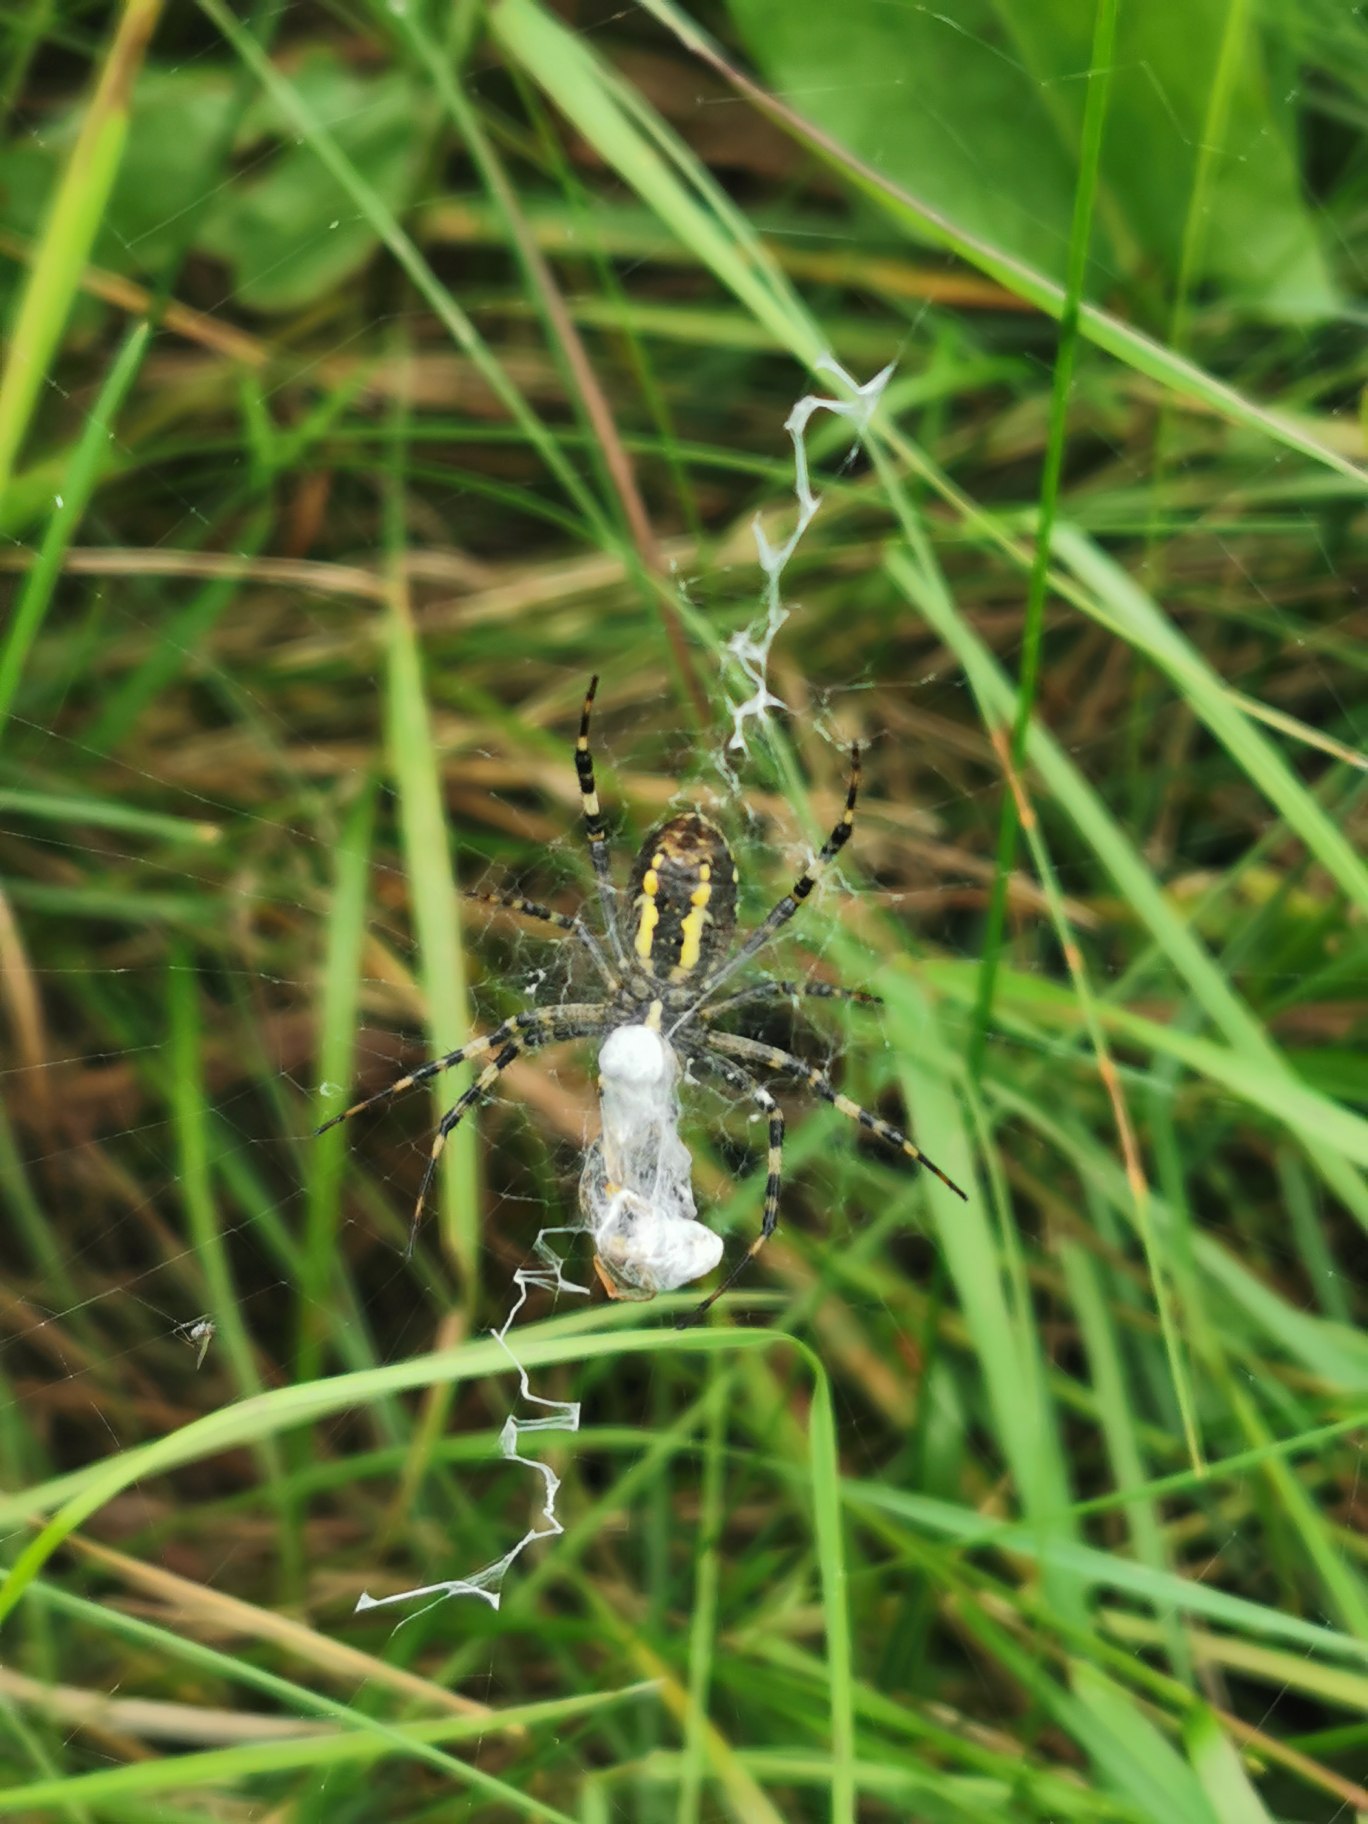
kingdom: Animalia
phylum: Arthropoda
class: Arachnida
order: Araneae
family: Araneidae
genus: Argiope
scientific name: Argiope bruennichi
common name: Hvepseedderkop
